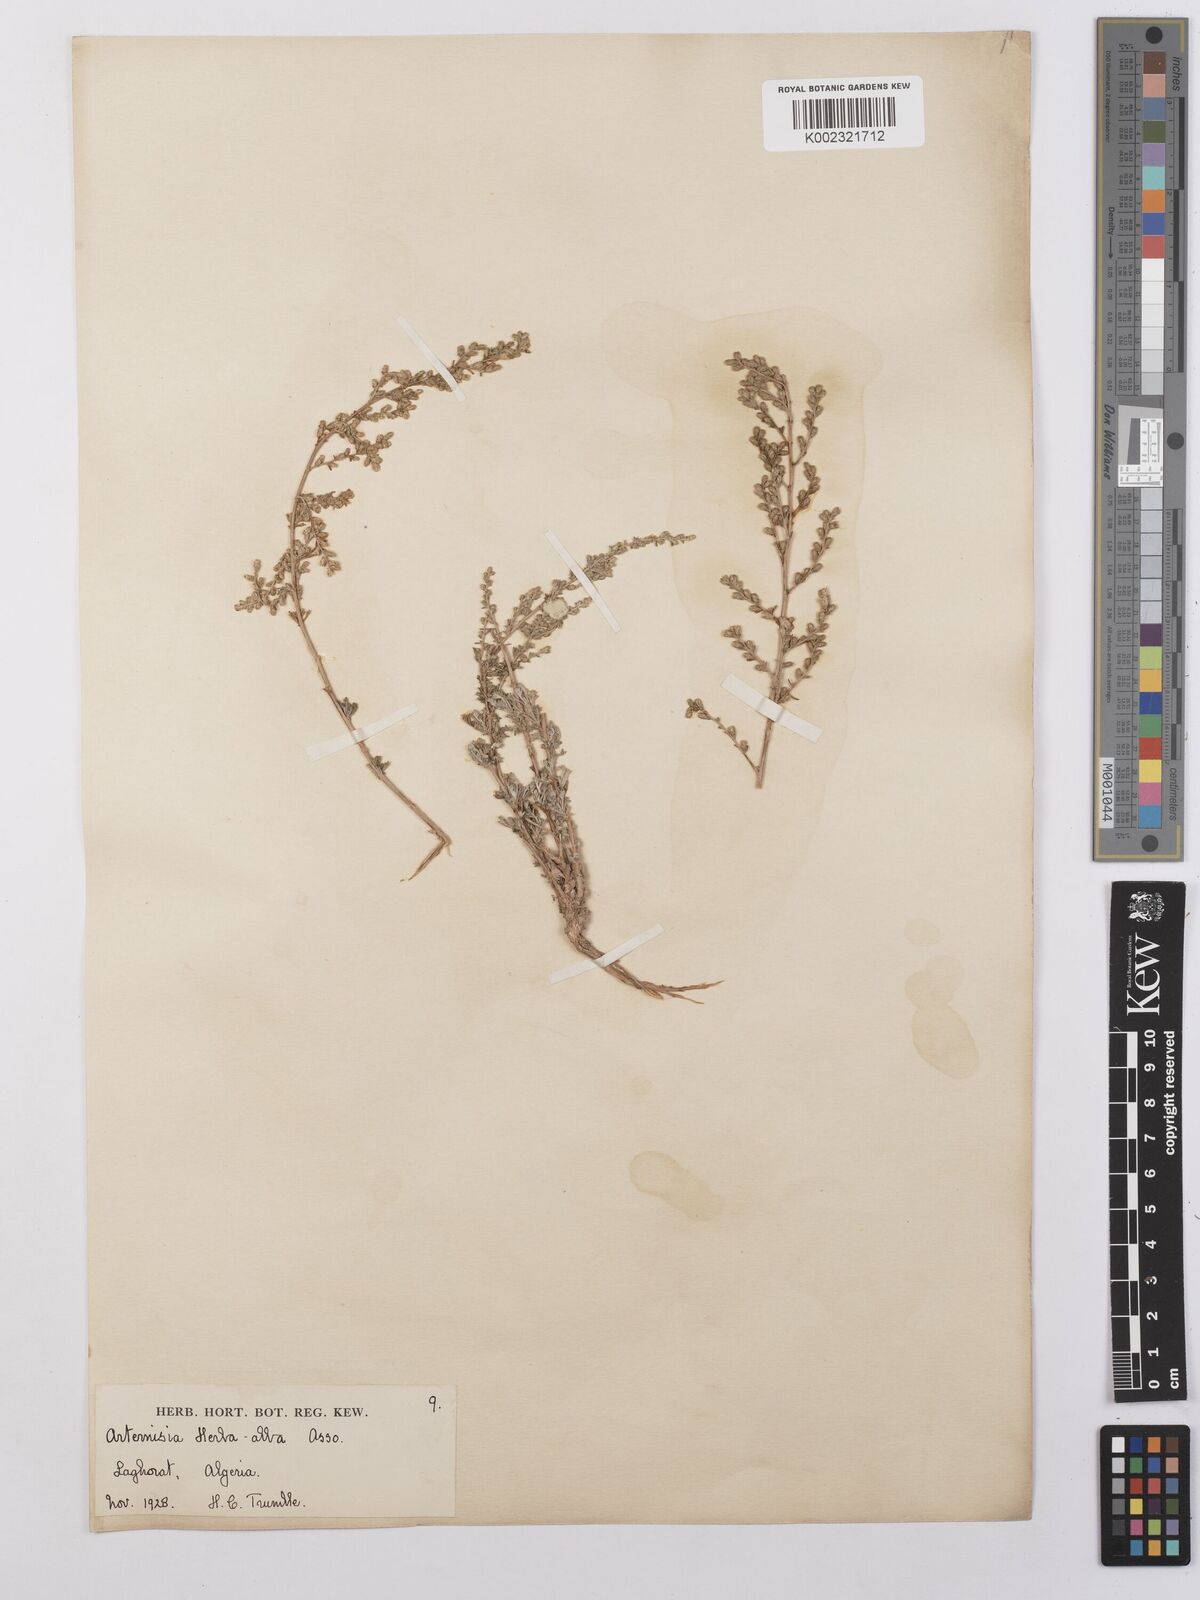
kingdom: Plantae
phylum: Tracheophyta
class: Magnoliopsida
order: Asterales
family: Asteraceae
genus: Artemisia
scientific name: Artemisia herba-alba
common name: White wormwood
